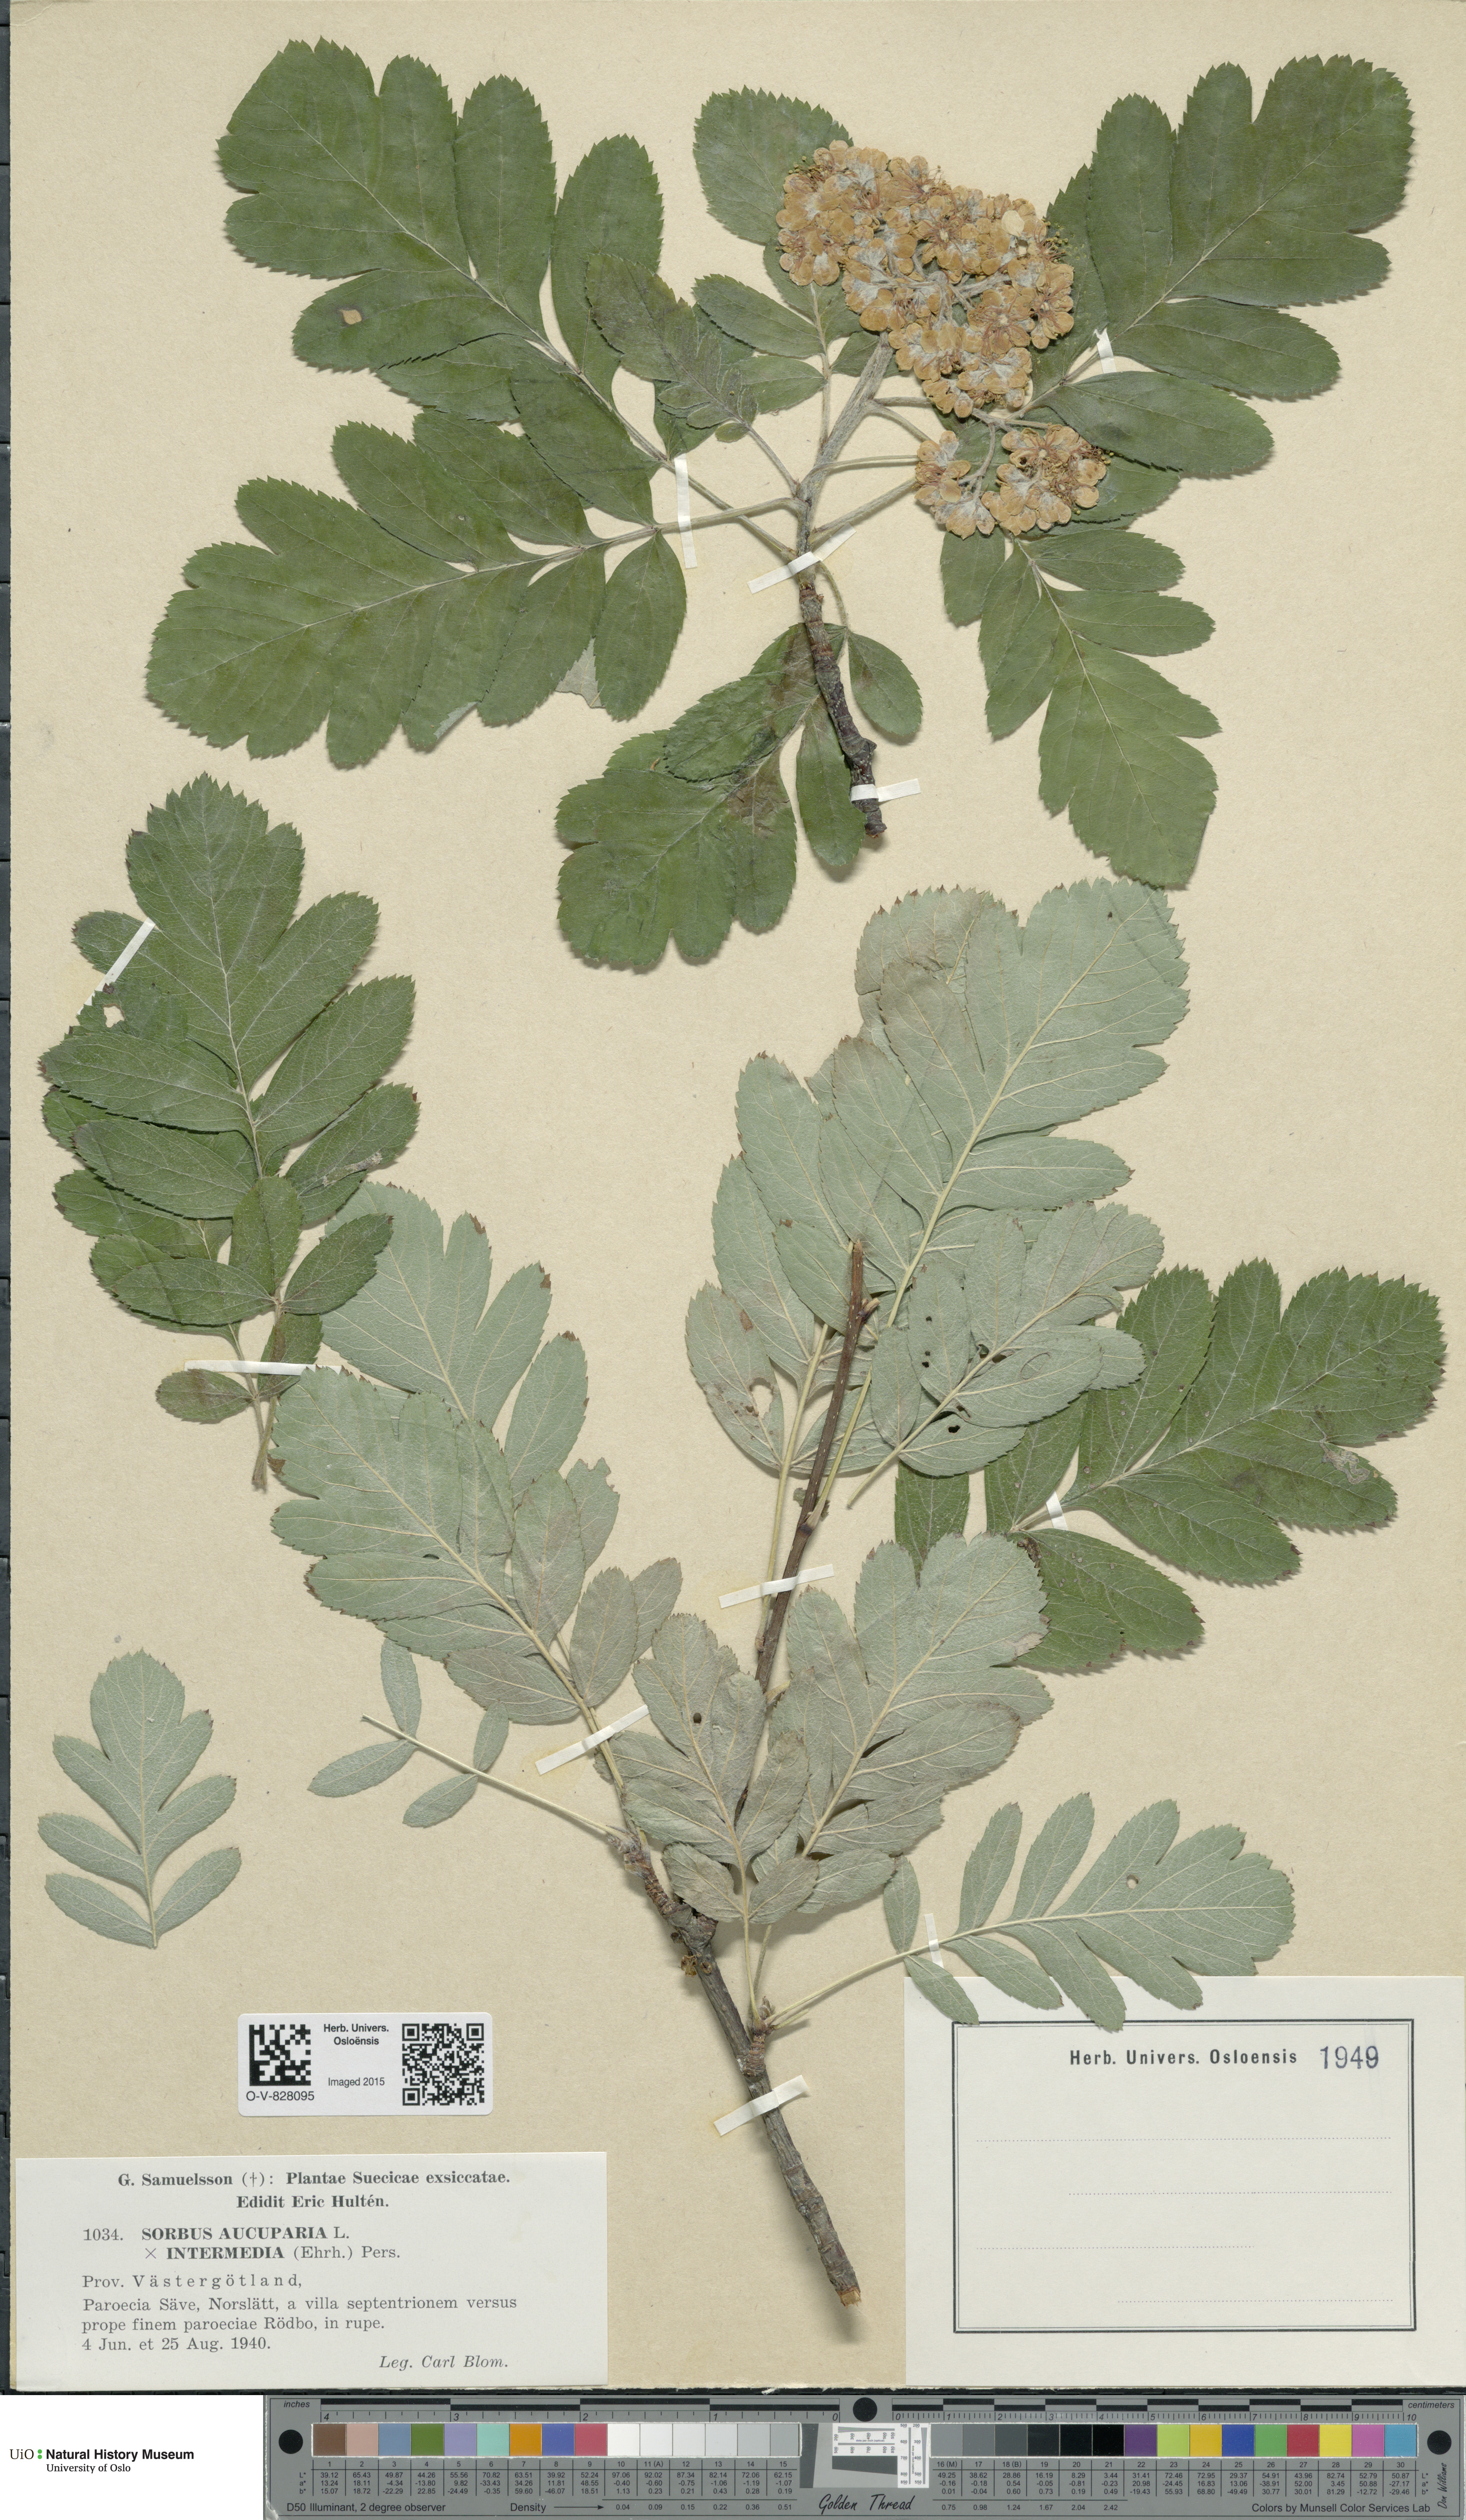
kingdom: Plantae
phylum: Tracheophyta
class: Magnoliopsida
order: Rosales
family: Rosaceae
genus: Scandosorbus
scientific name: Scandosorbus
